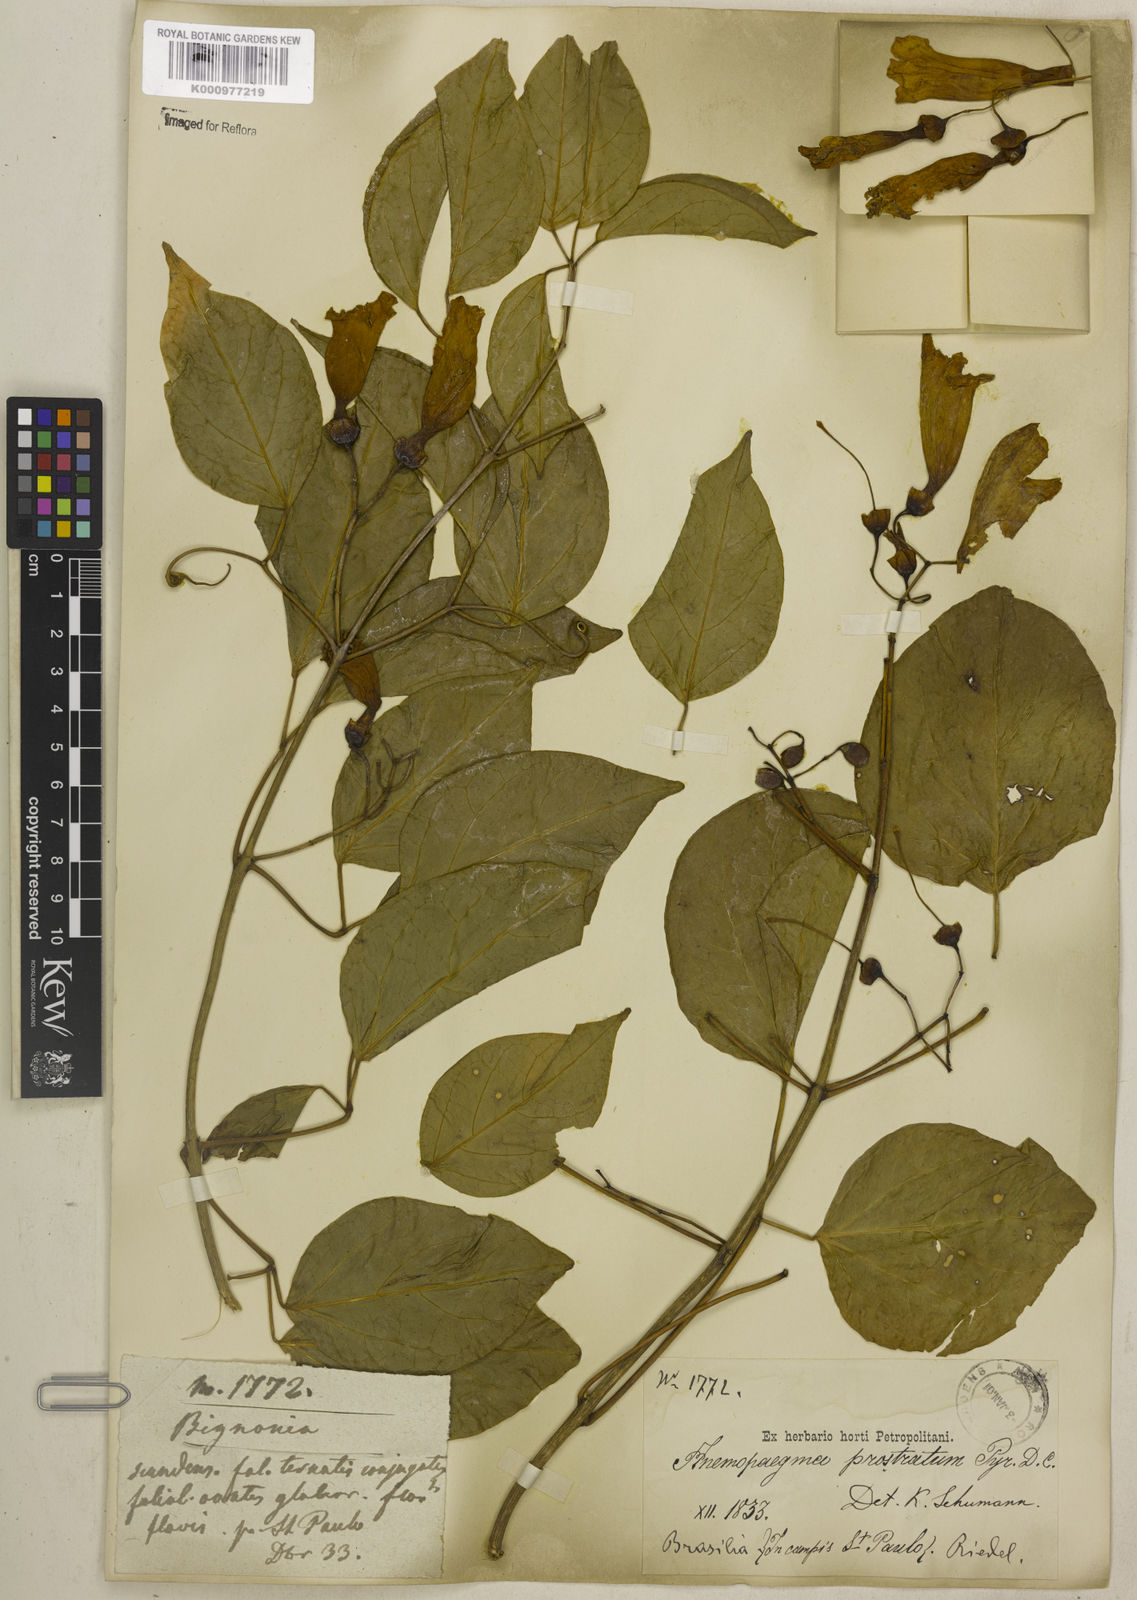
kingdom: Plantae
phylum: Tracheophyta
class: Magnoliopsida
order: Lamiales
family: Bignoniaceae
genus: Anemopaegma
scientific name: Anemopaegma prostratum
